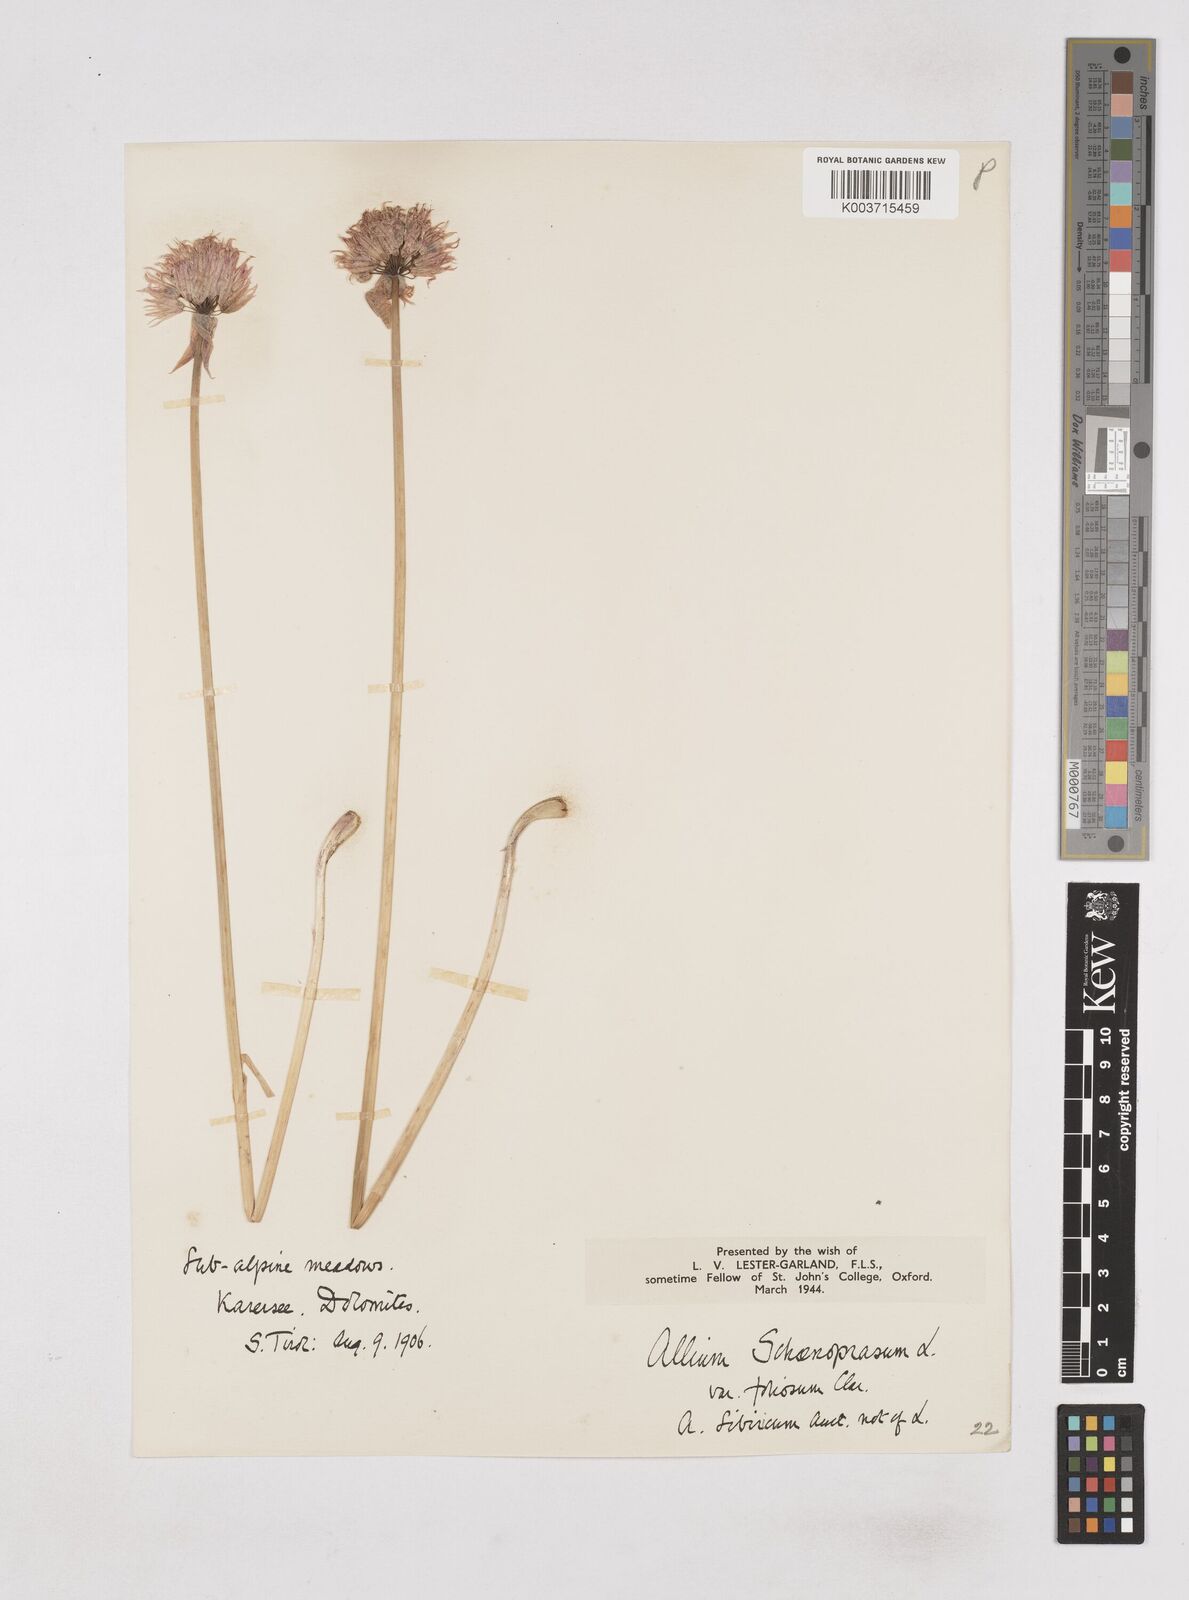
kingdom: Plantae
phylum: Tracheophyta
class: Liliopsida
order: Asparagales
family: Amaryllidaceae
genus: Allium
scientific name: Allium schoenoprasum
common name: Chives
